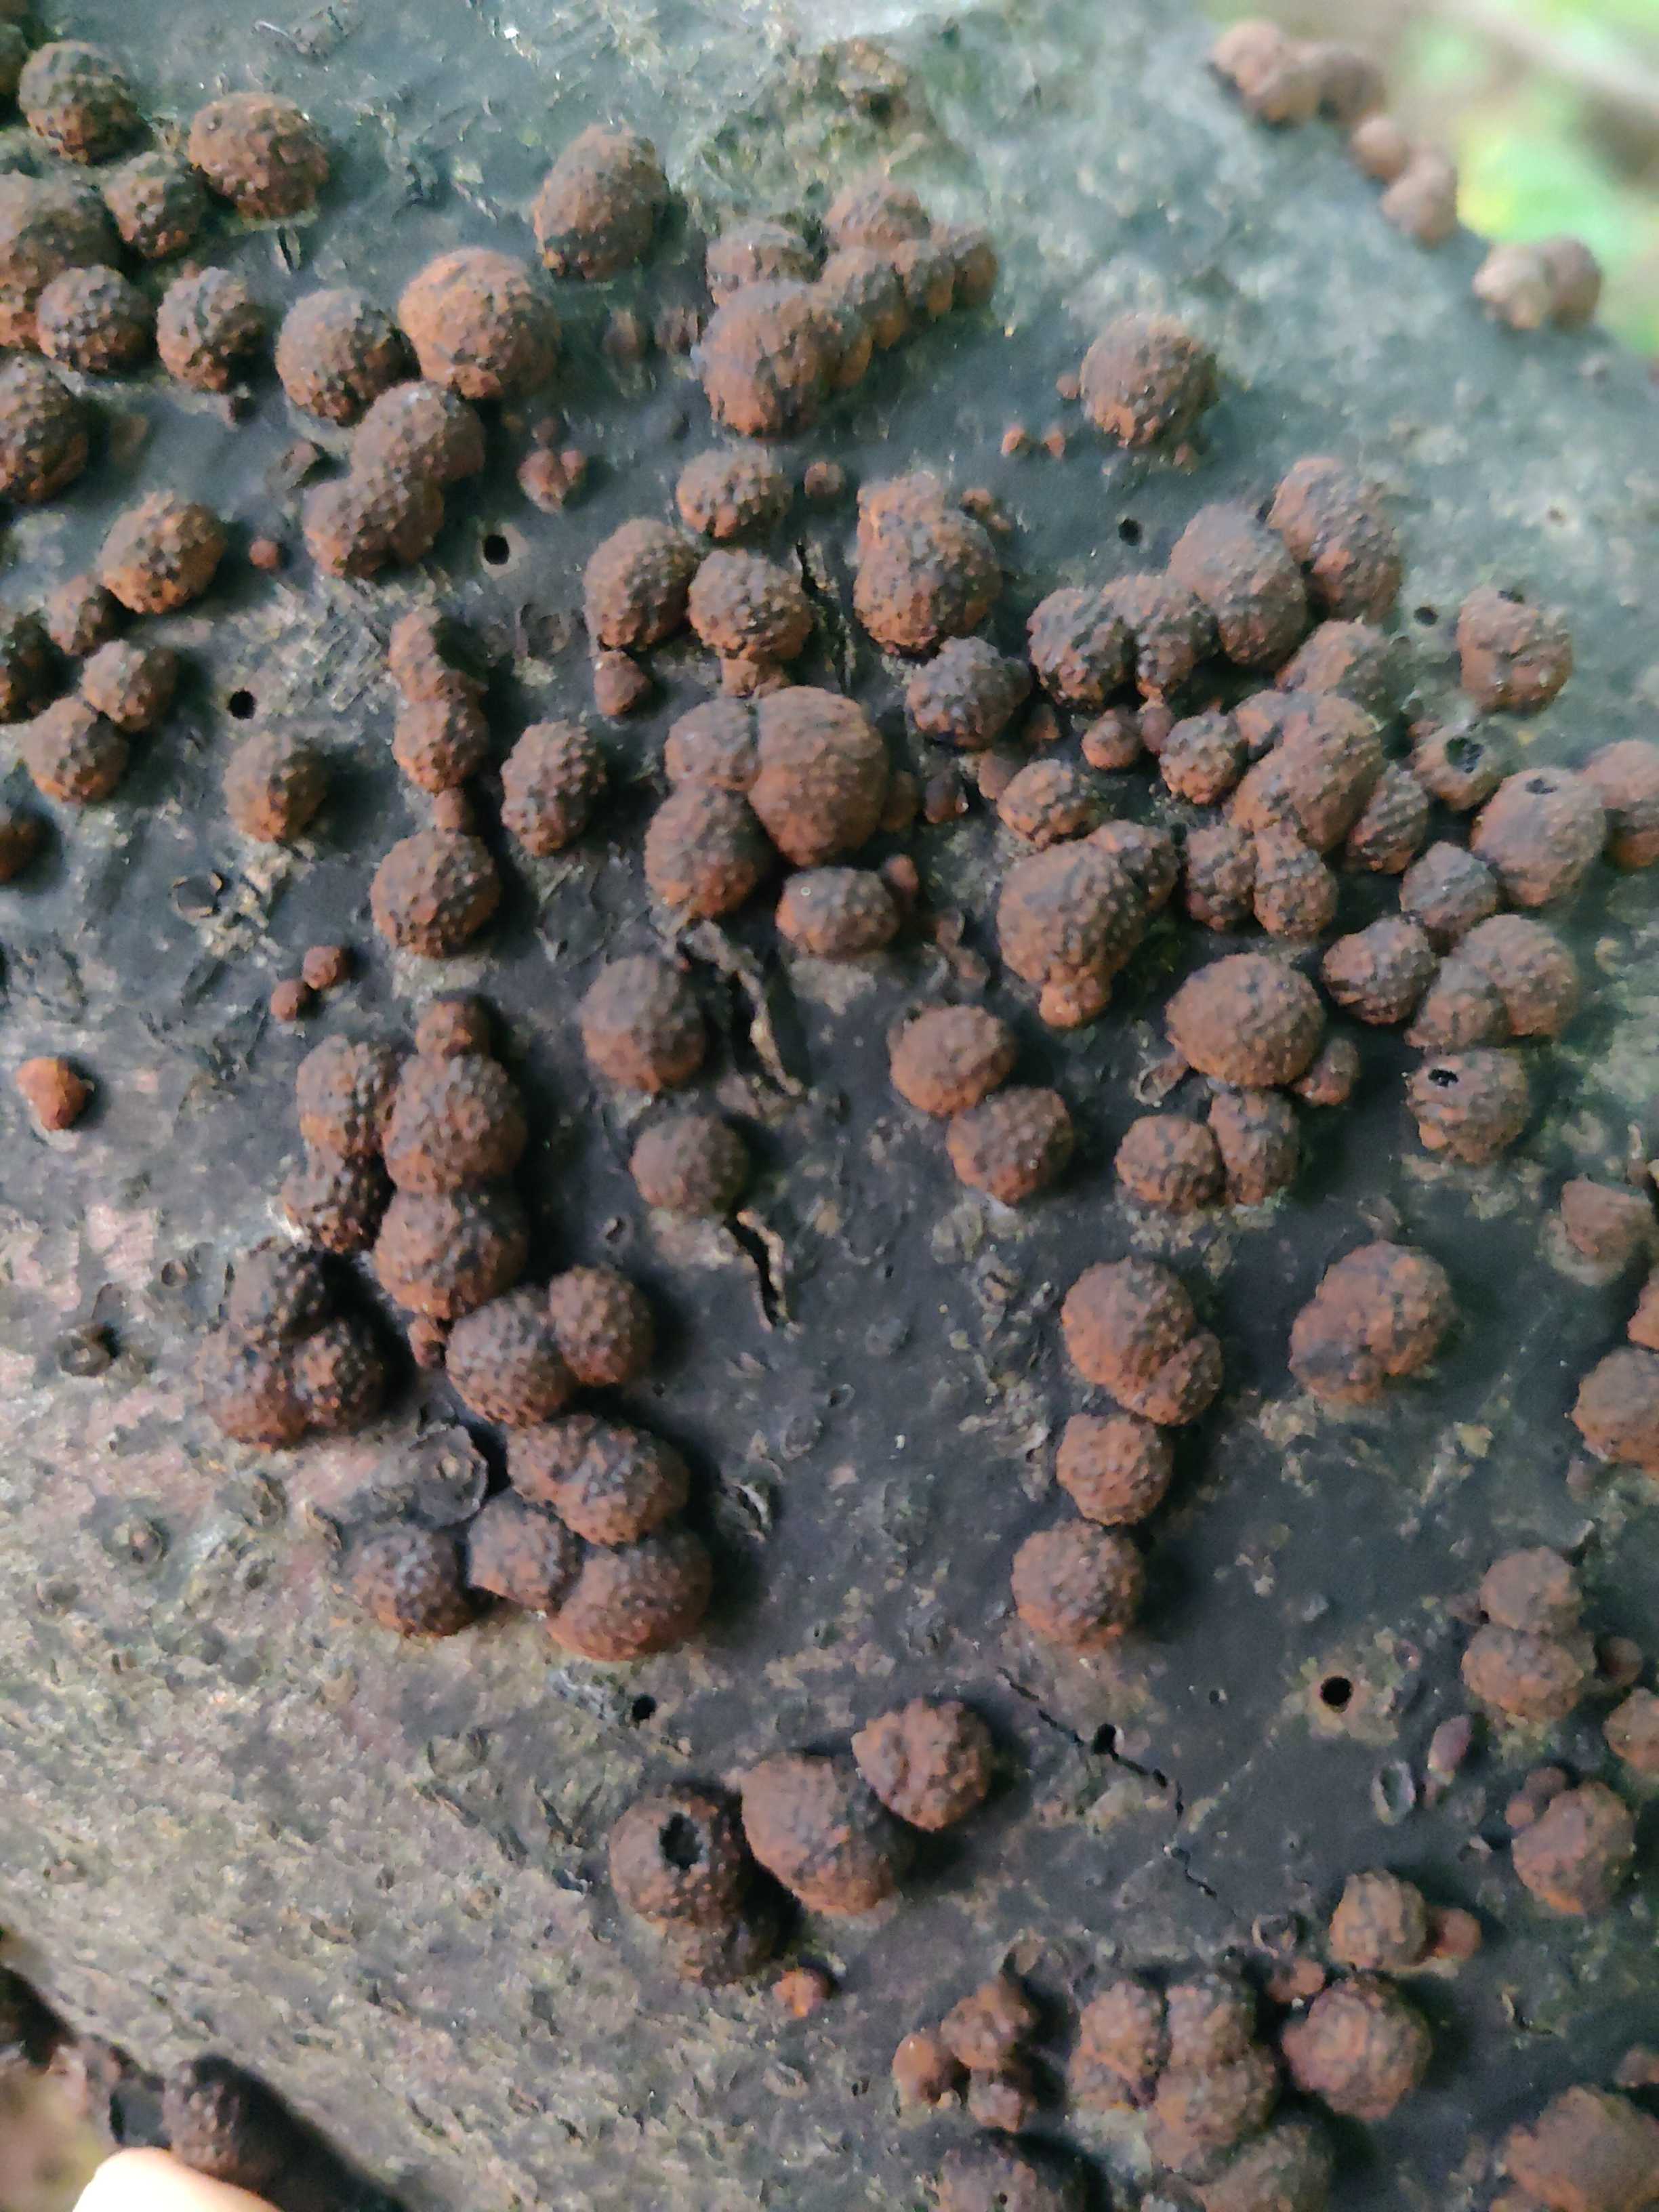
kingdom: Fungi
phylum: Ascomycota
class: Sordariomycetes
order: Xylariales
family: Hypoxylaceae
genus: Hypoxylon
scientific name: Hypoxylon fragiforme
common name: kuljordbær
